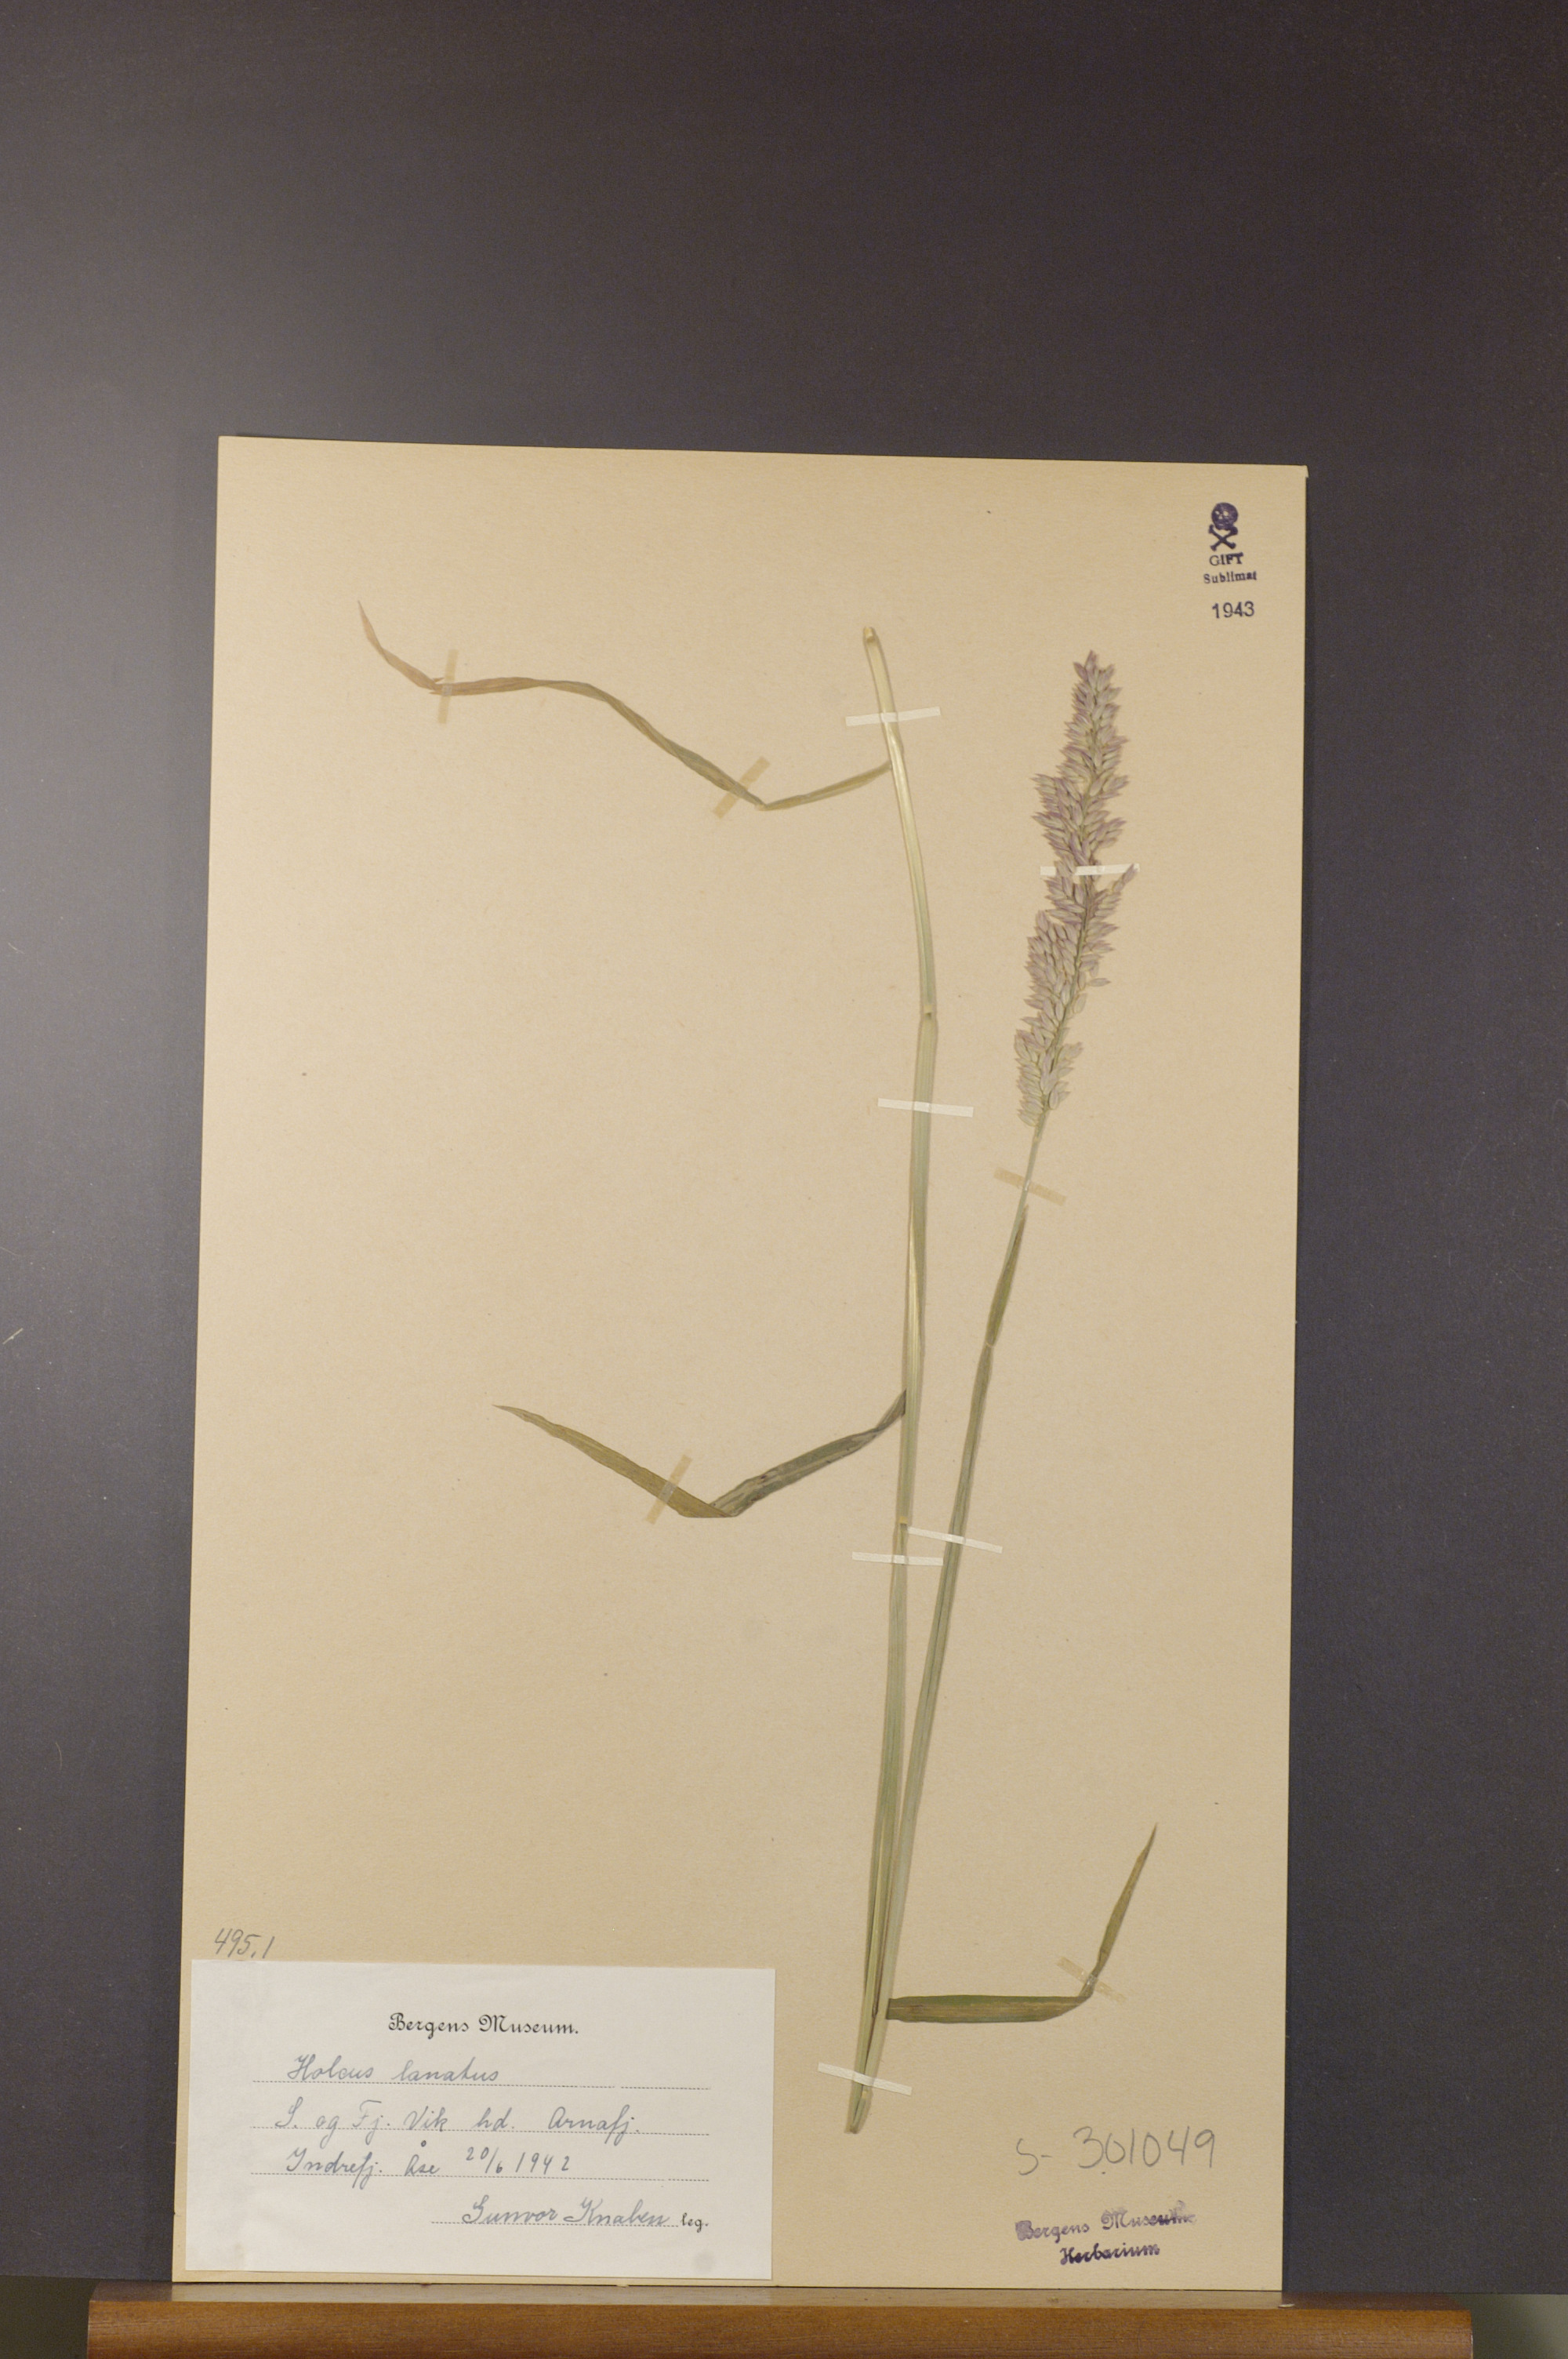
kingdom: Plantae
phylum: Tracheophyta
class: Liliopsida
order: Poales
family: Poaceae
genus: Holcus
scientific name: Holcus lanatus
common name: Yorkshire-fog
